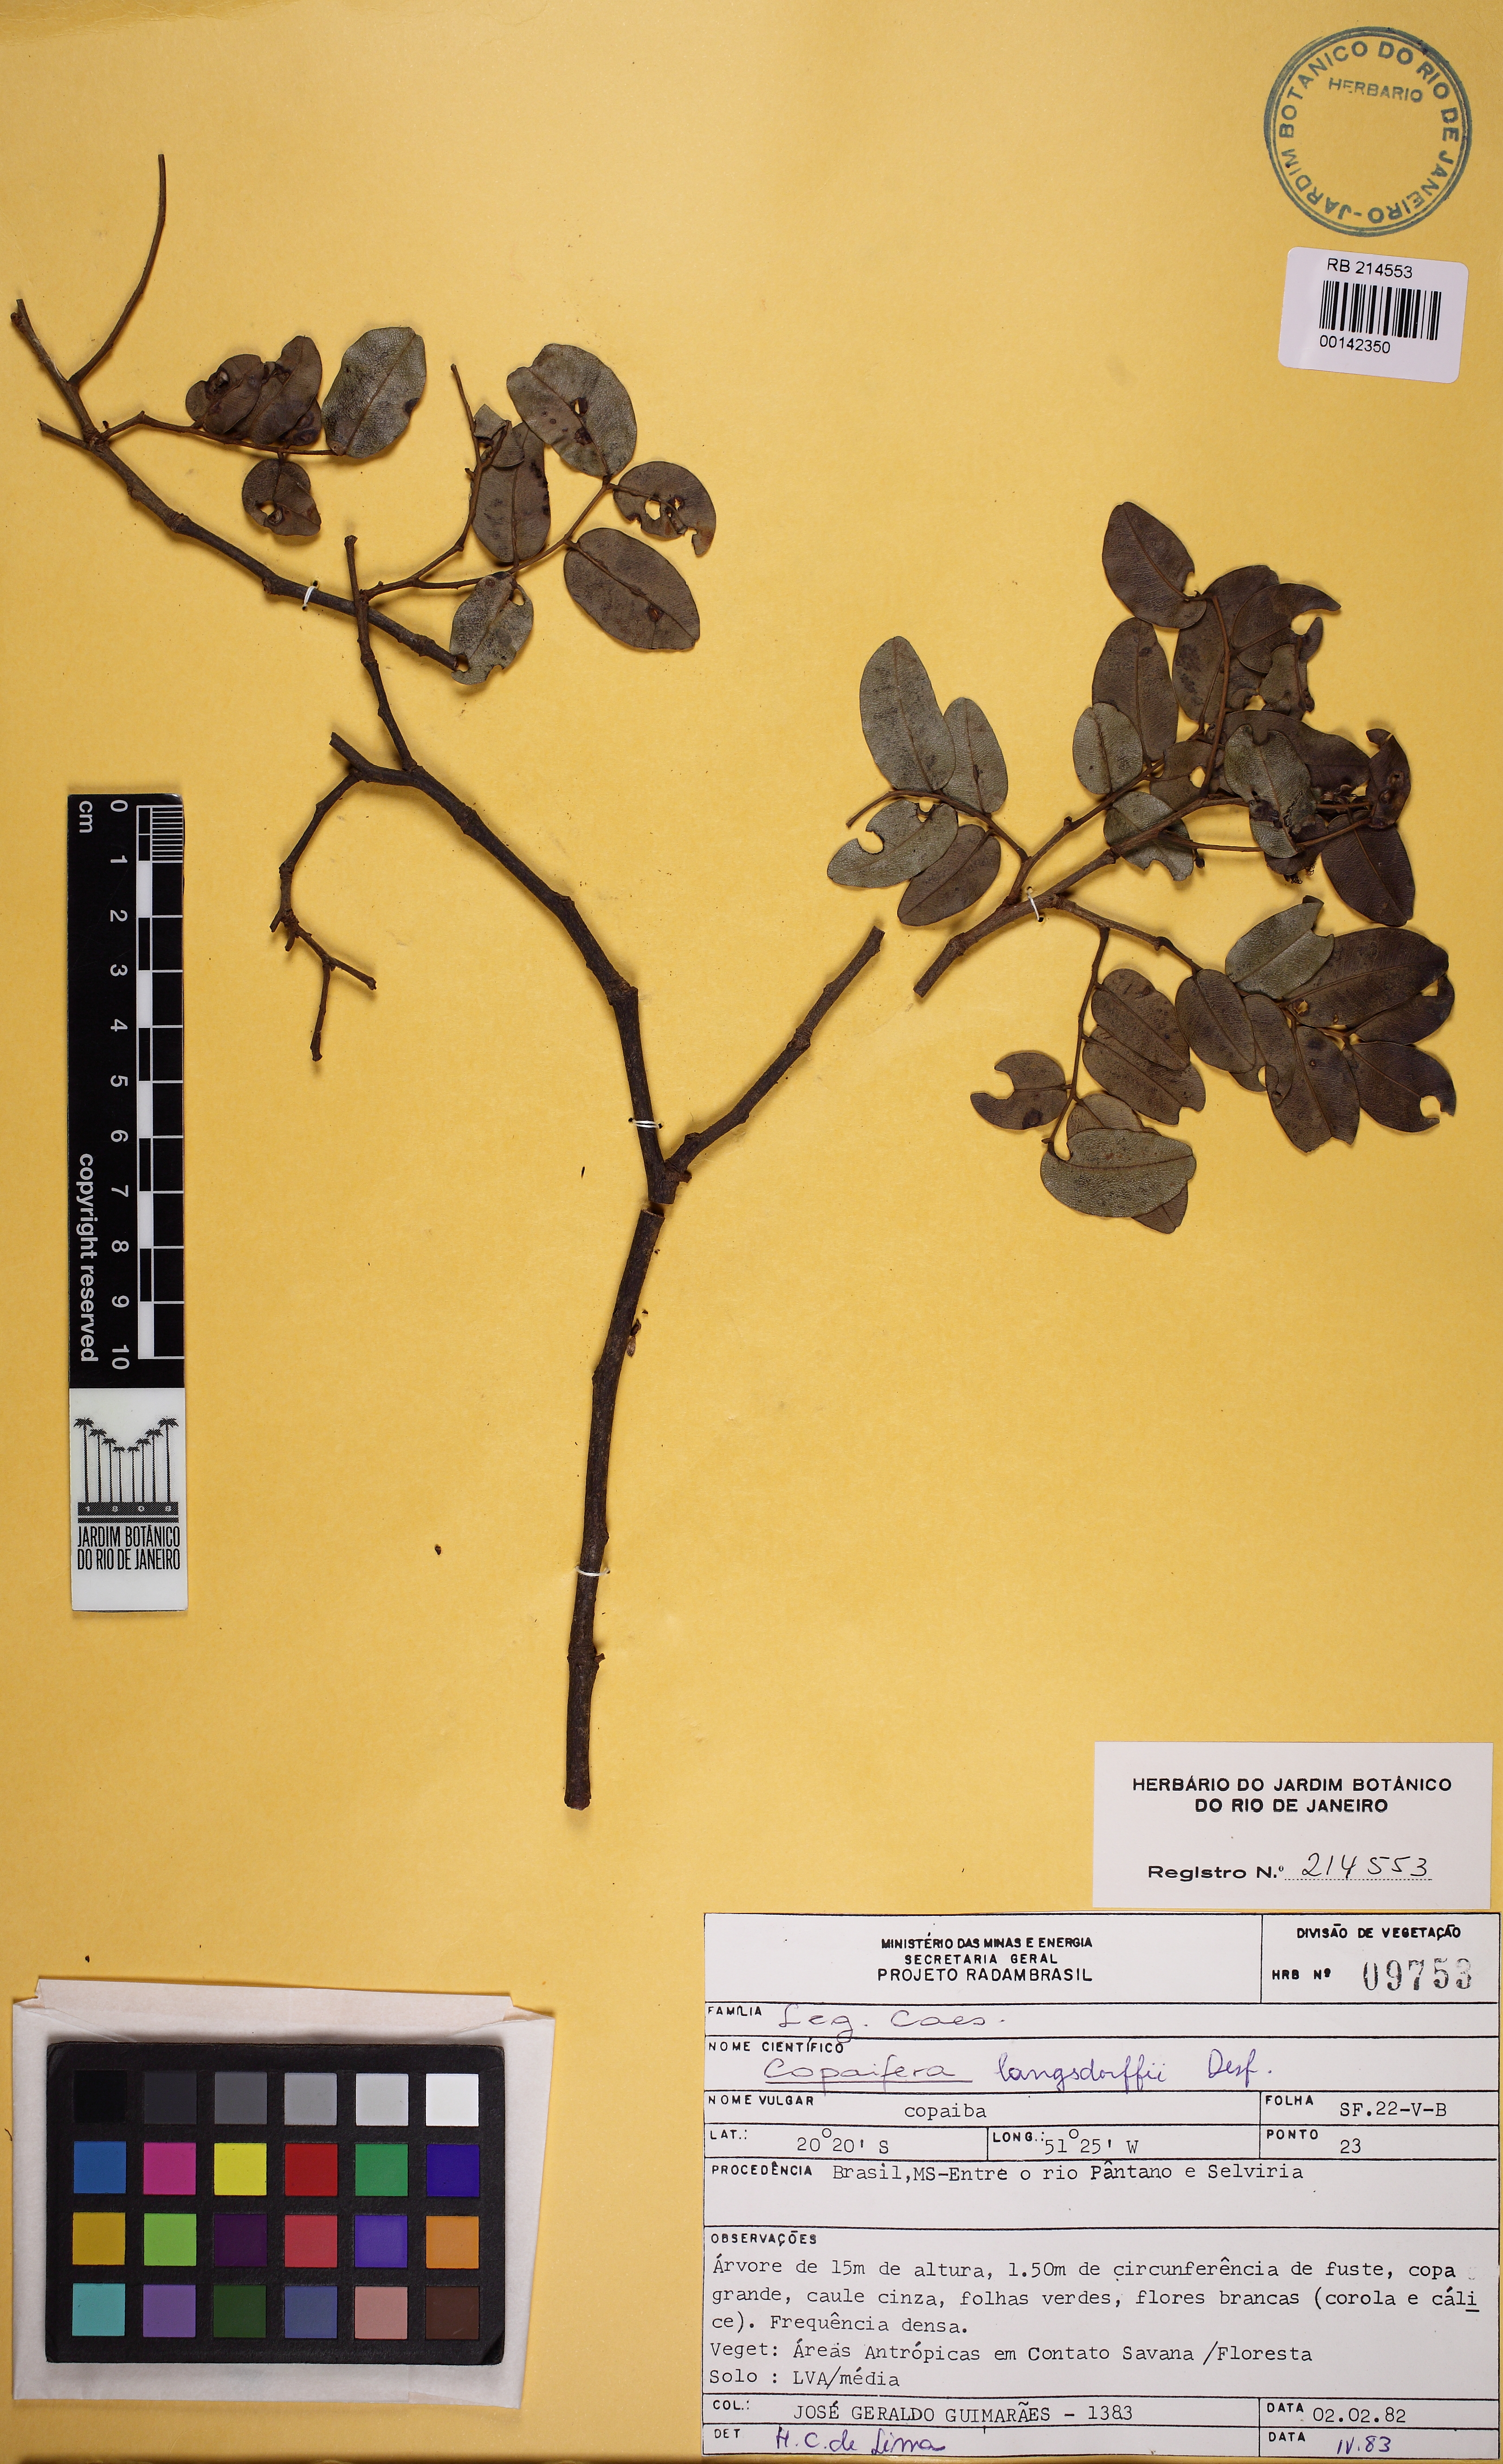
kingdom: Plantae
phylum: Tracheophyta
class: Magnoliopsida
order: Fabales
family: Fabaceae
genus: Copaifera
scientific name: Copaifera langsdorffii
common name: Brazilian diesel tree
